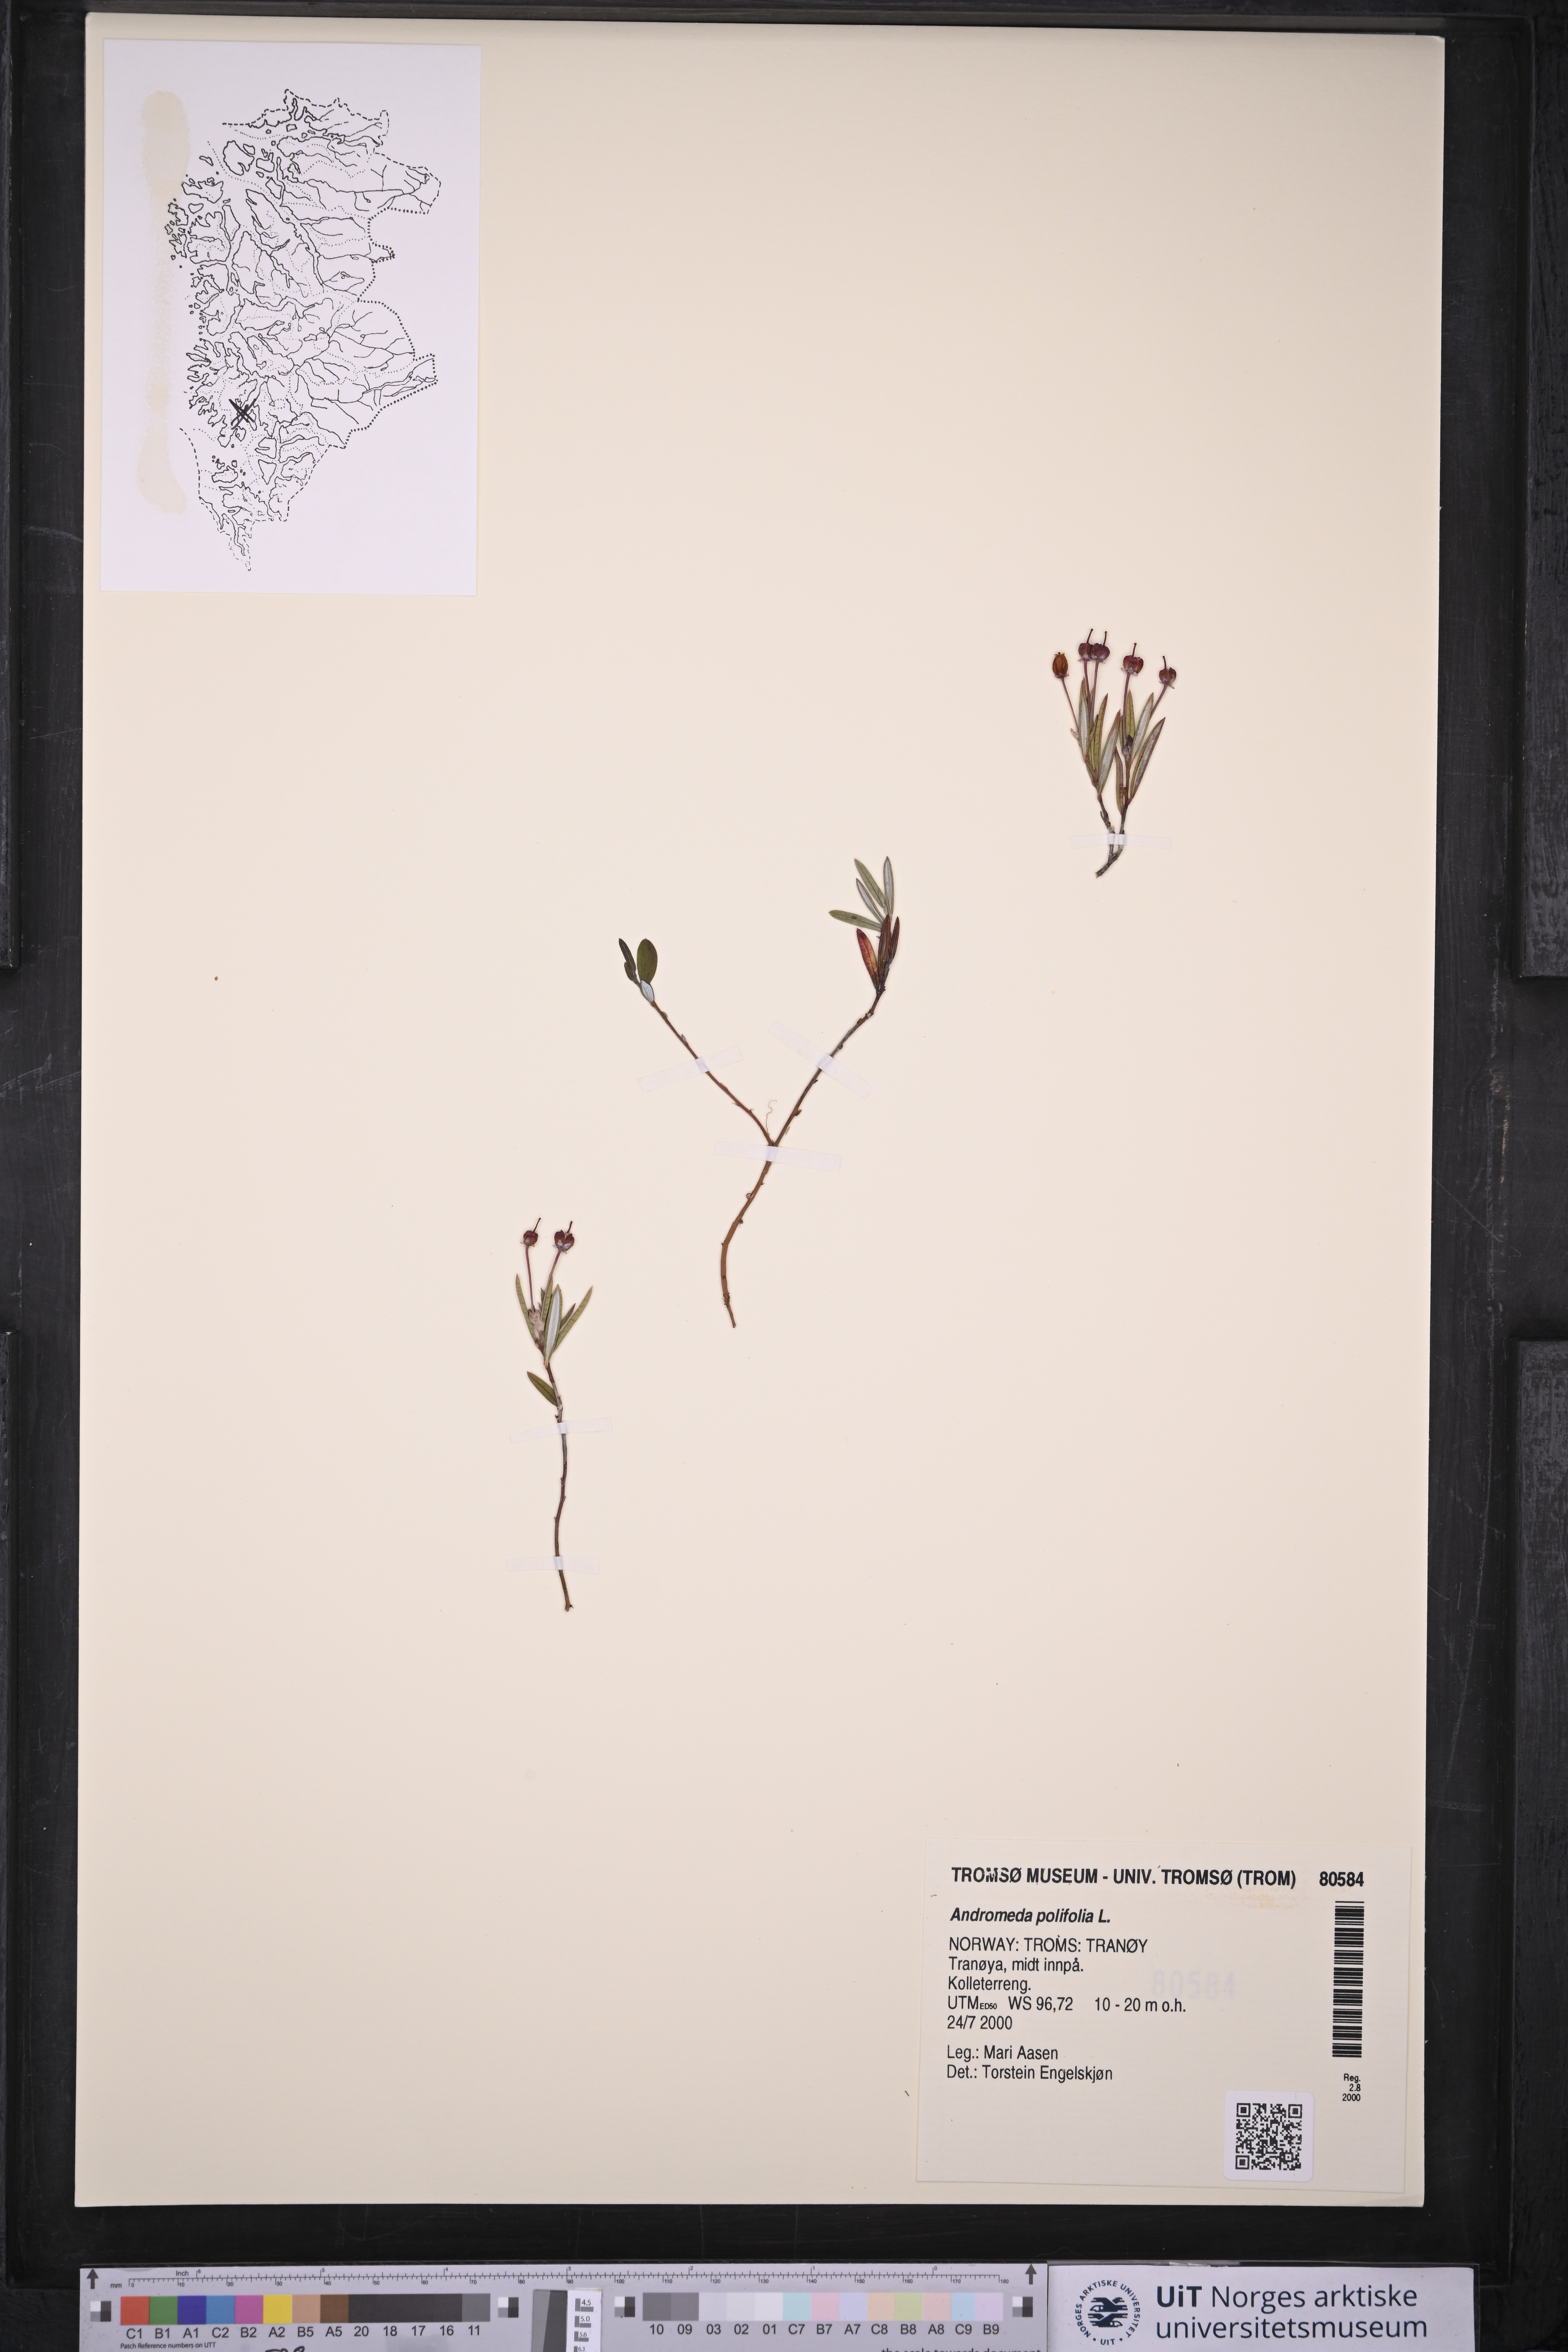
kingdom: Plantae
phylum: Tracheophyta
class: Magnoliopsida
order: Ericales
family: Ericaceae
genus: Andromeda
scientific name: Andromeda polifolia
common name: Bog-rosemary
